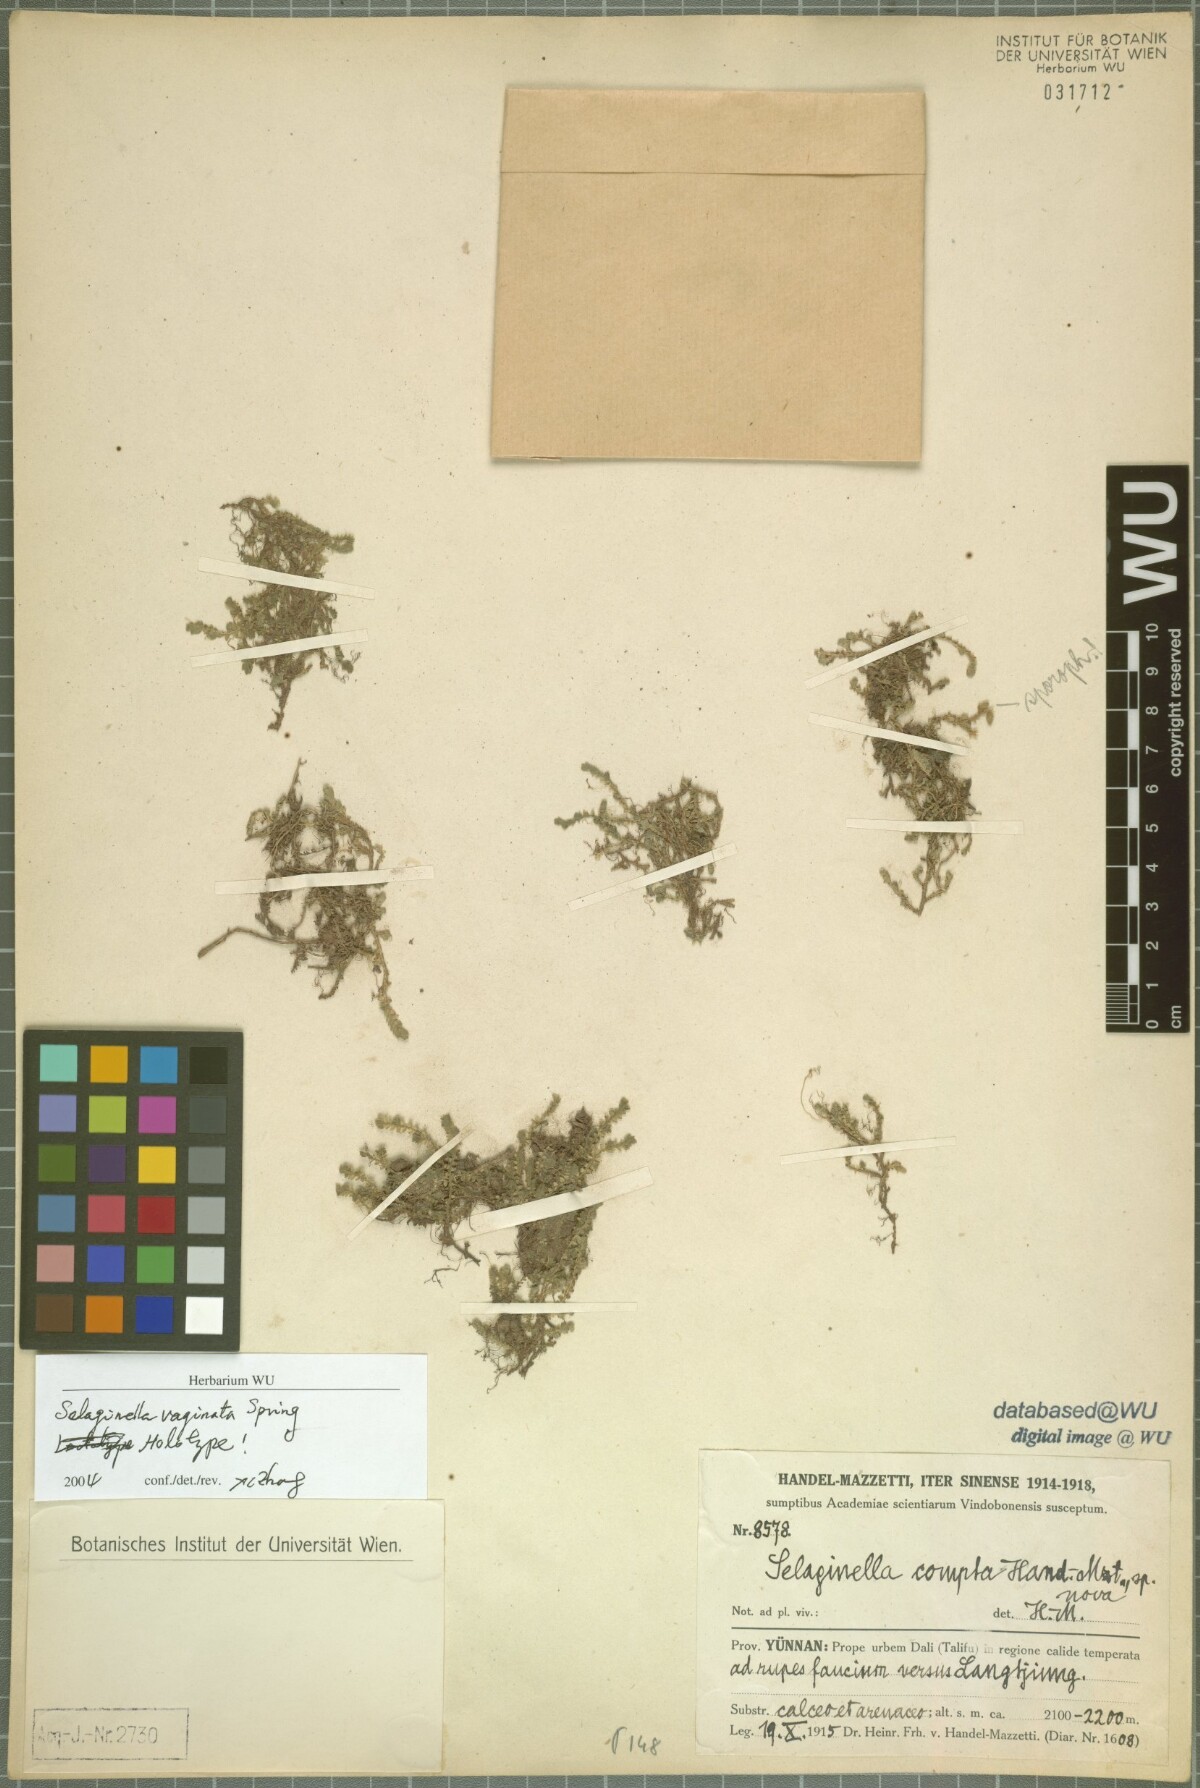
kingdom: Plantae
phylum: Tracheophyta
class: Lycopodiopsida
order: Selaginellales
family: Selaginellaceae
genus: Selaginella
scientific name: Selaginella vaginata
